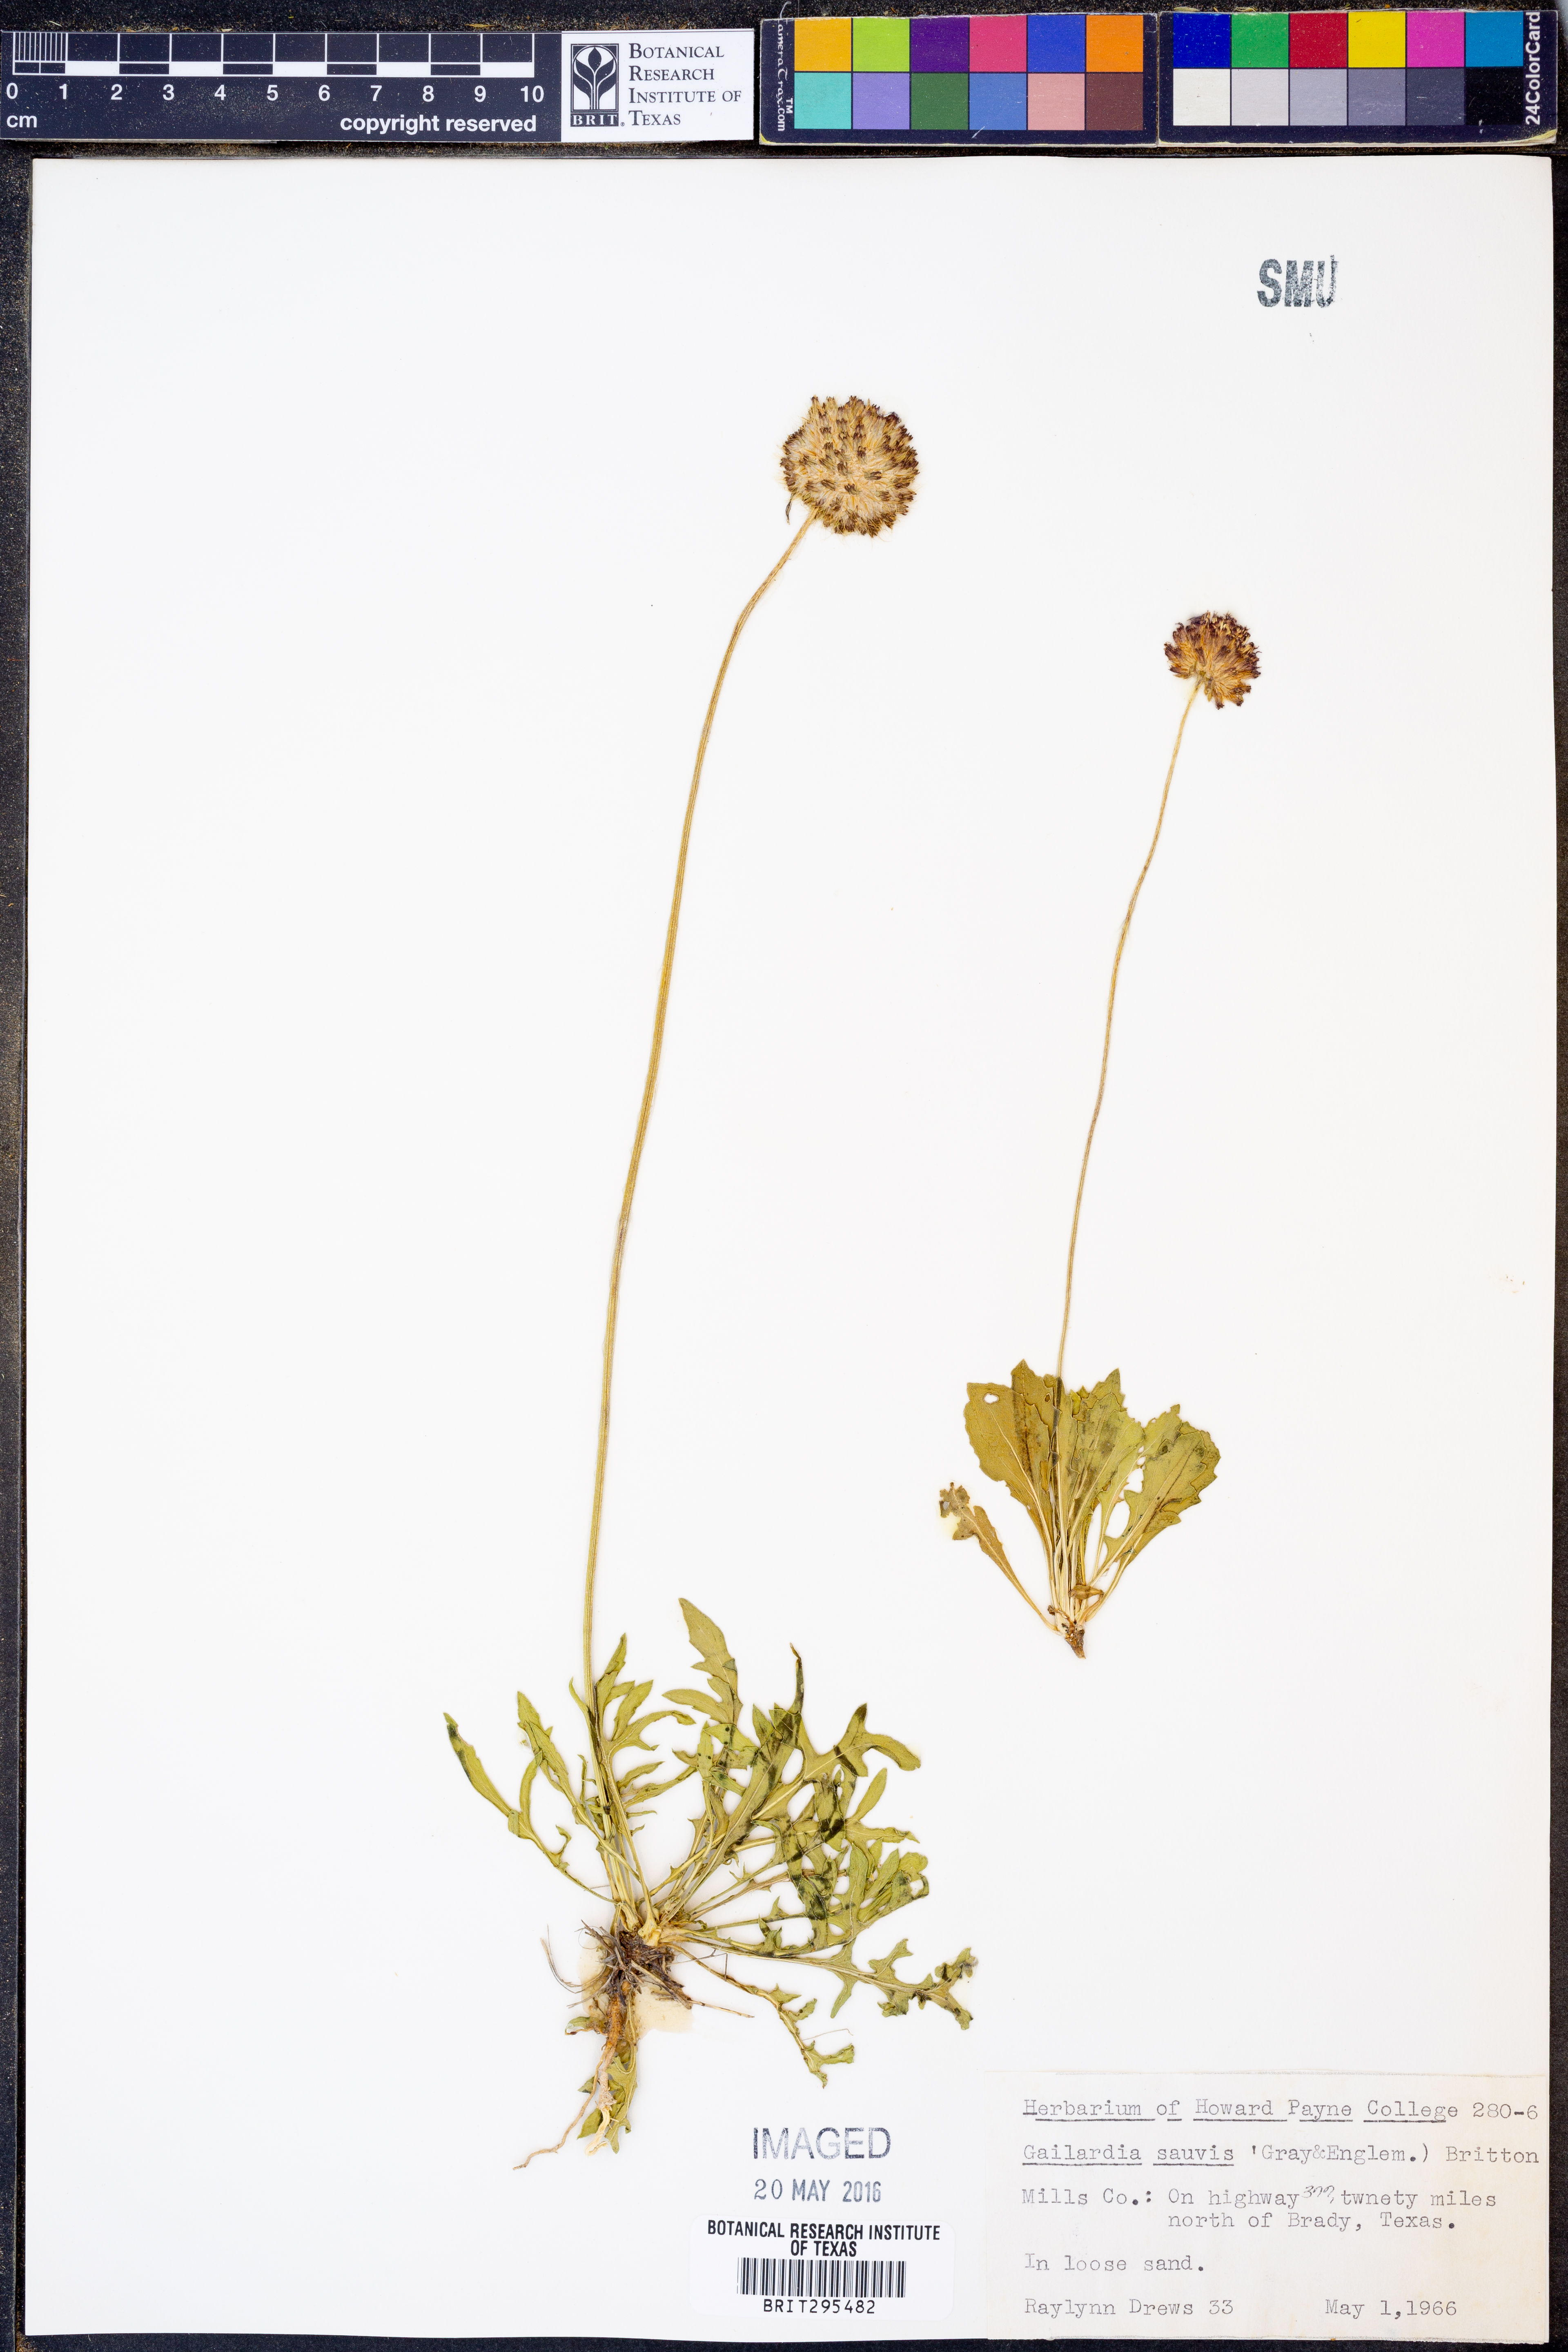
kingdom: Plantae
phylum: Tracheophyta
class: Magnoliopsida
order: Asterales
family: Asteraceae
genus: Gaillardia
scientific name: Gaillardia suavis
